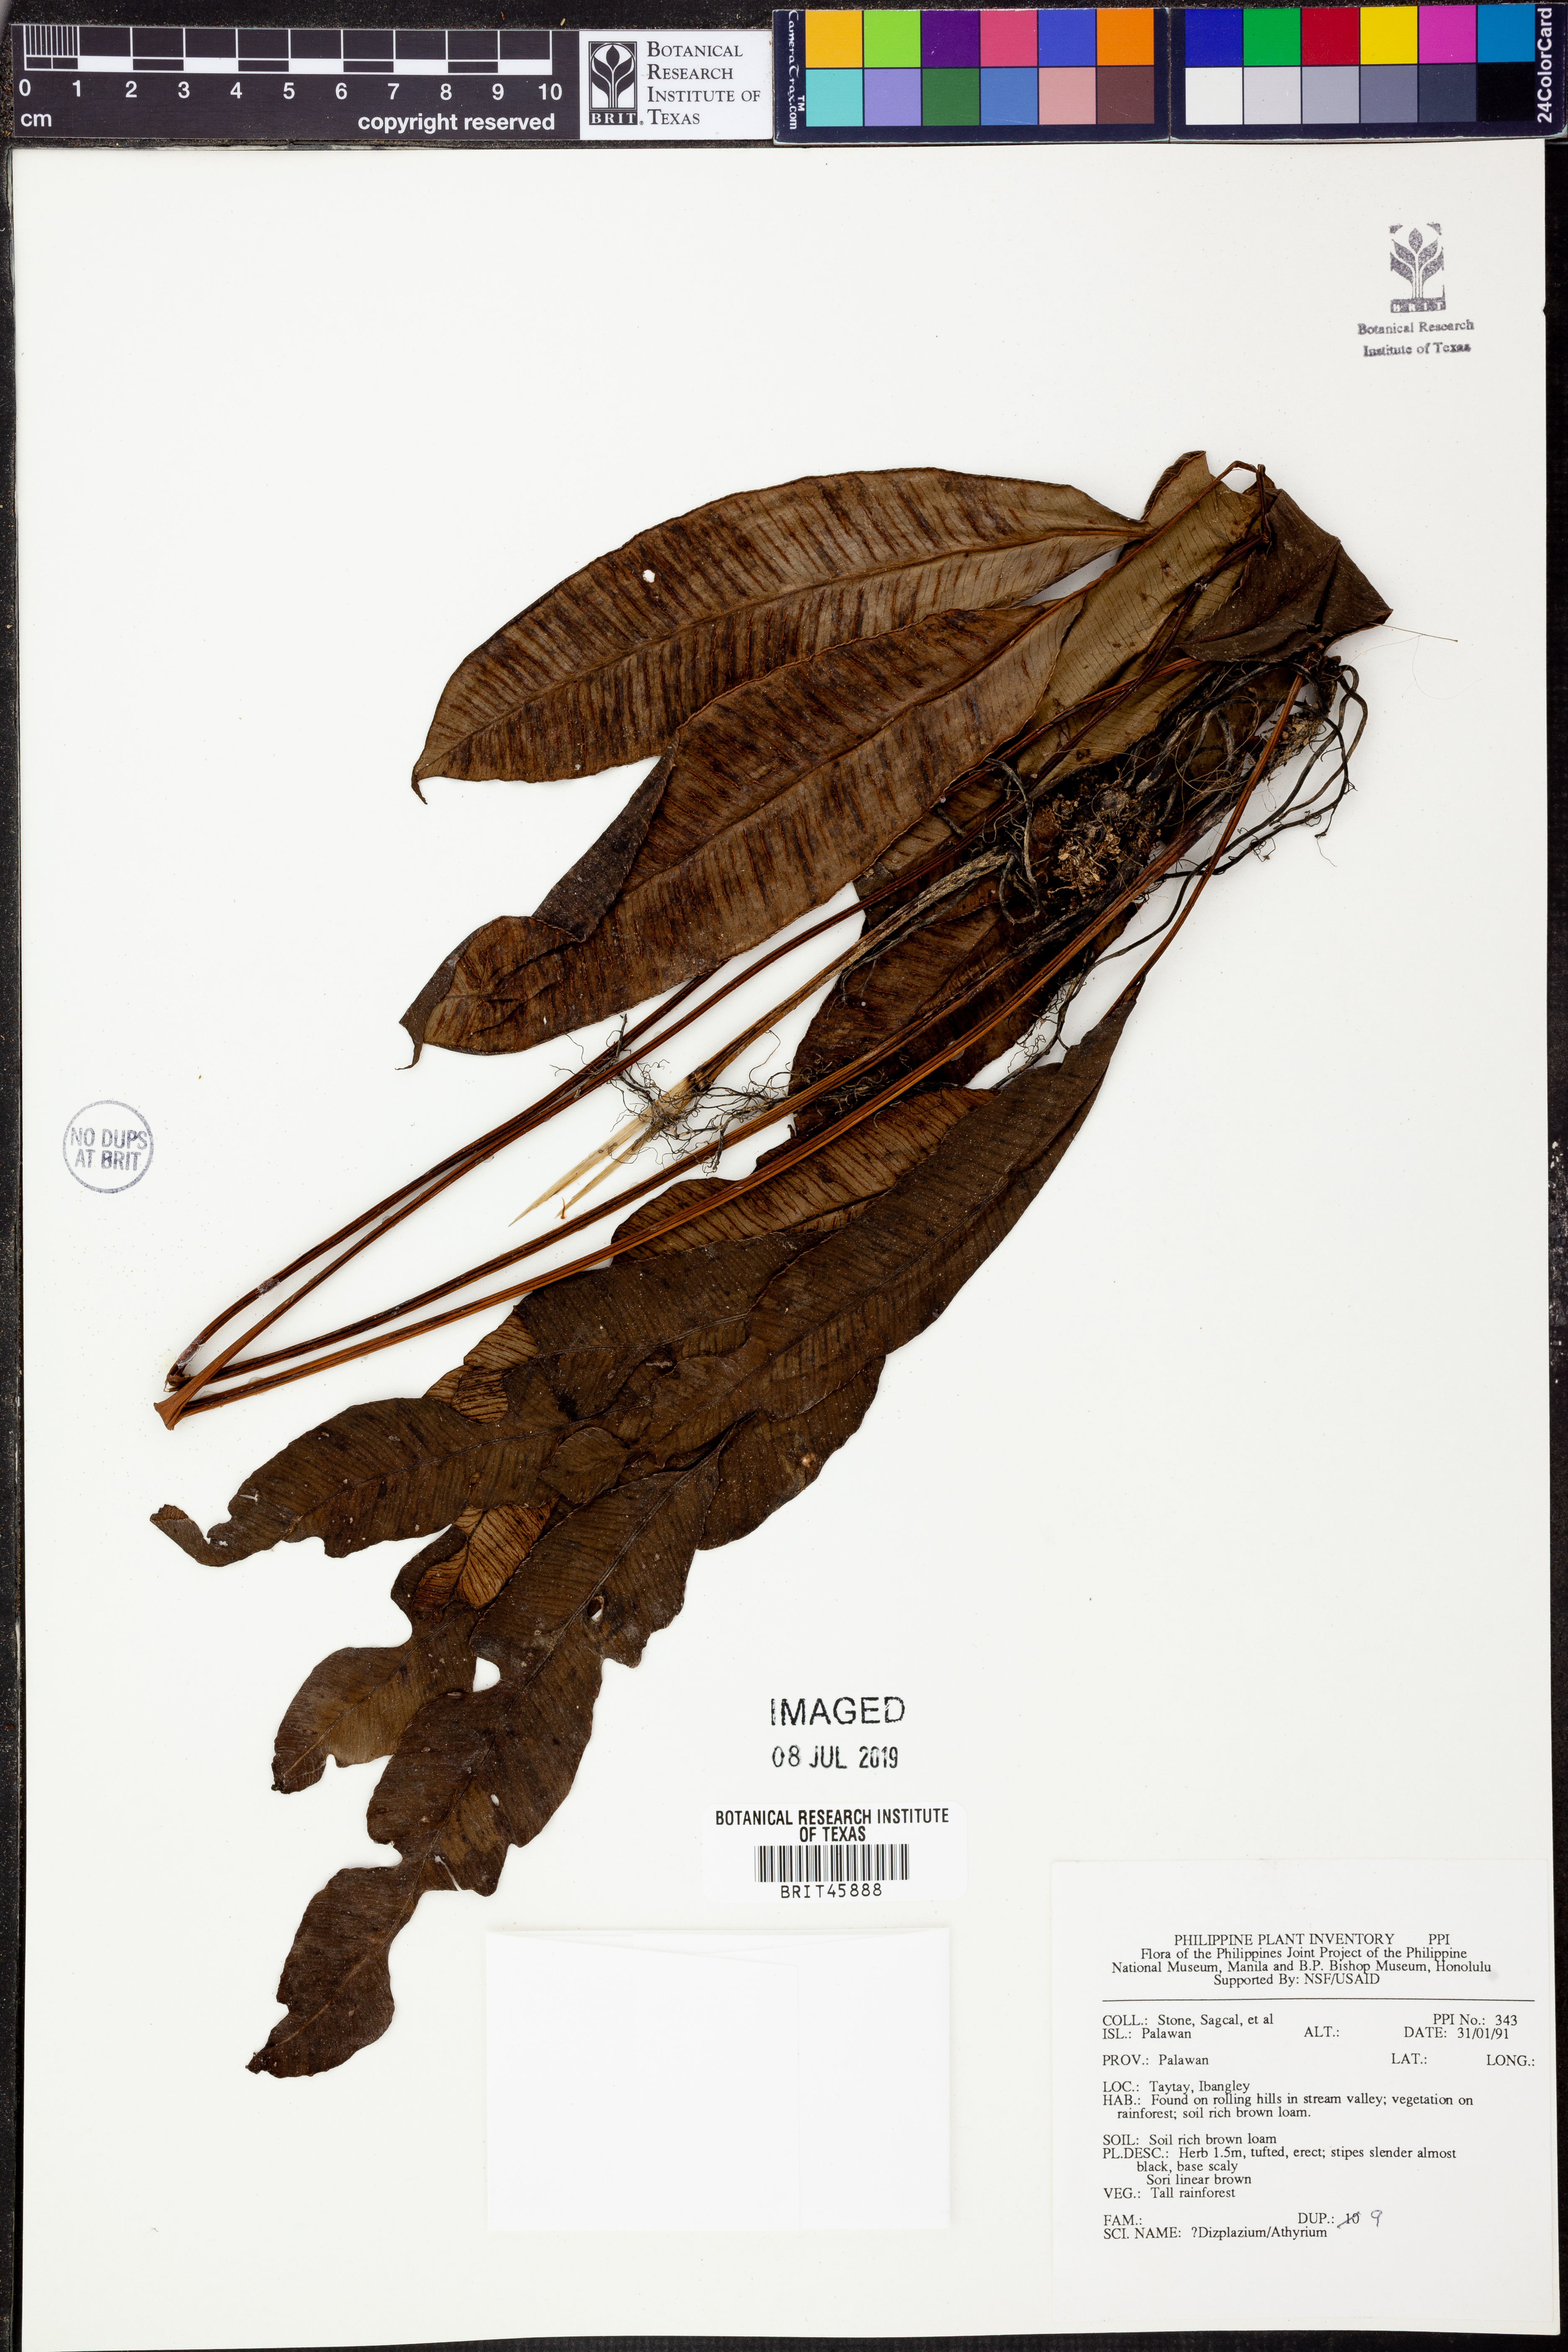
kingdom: Plantae
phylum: Tracheophyta
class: Polypodiopsida
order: Polypodiales
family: Athyriaceae
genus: Diplazium
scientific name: Diplazium
